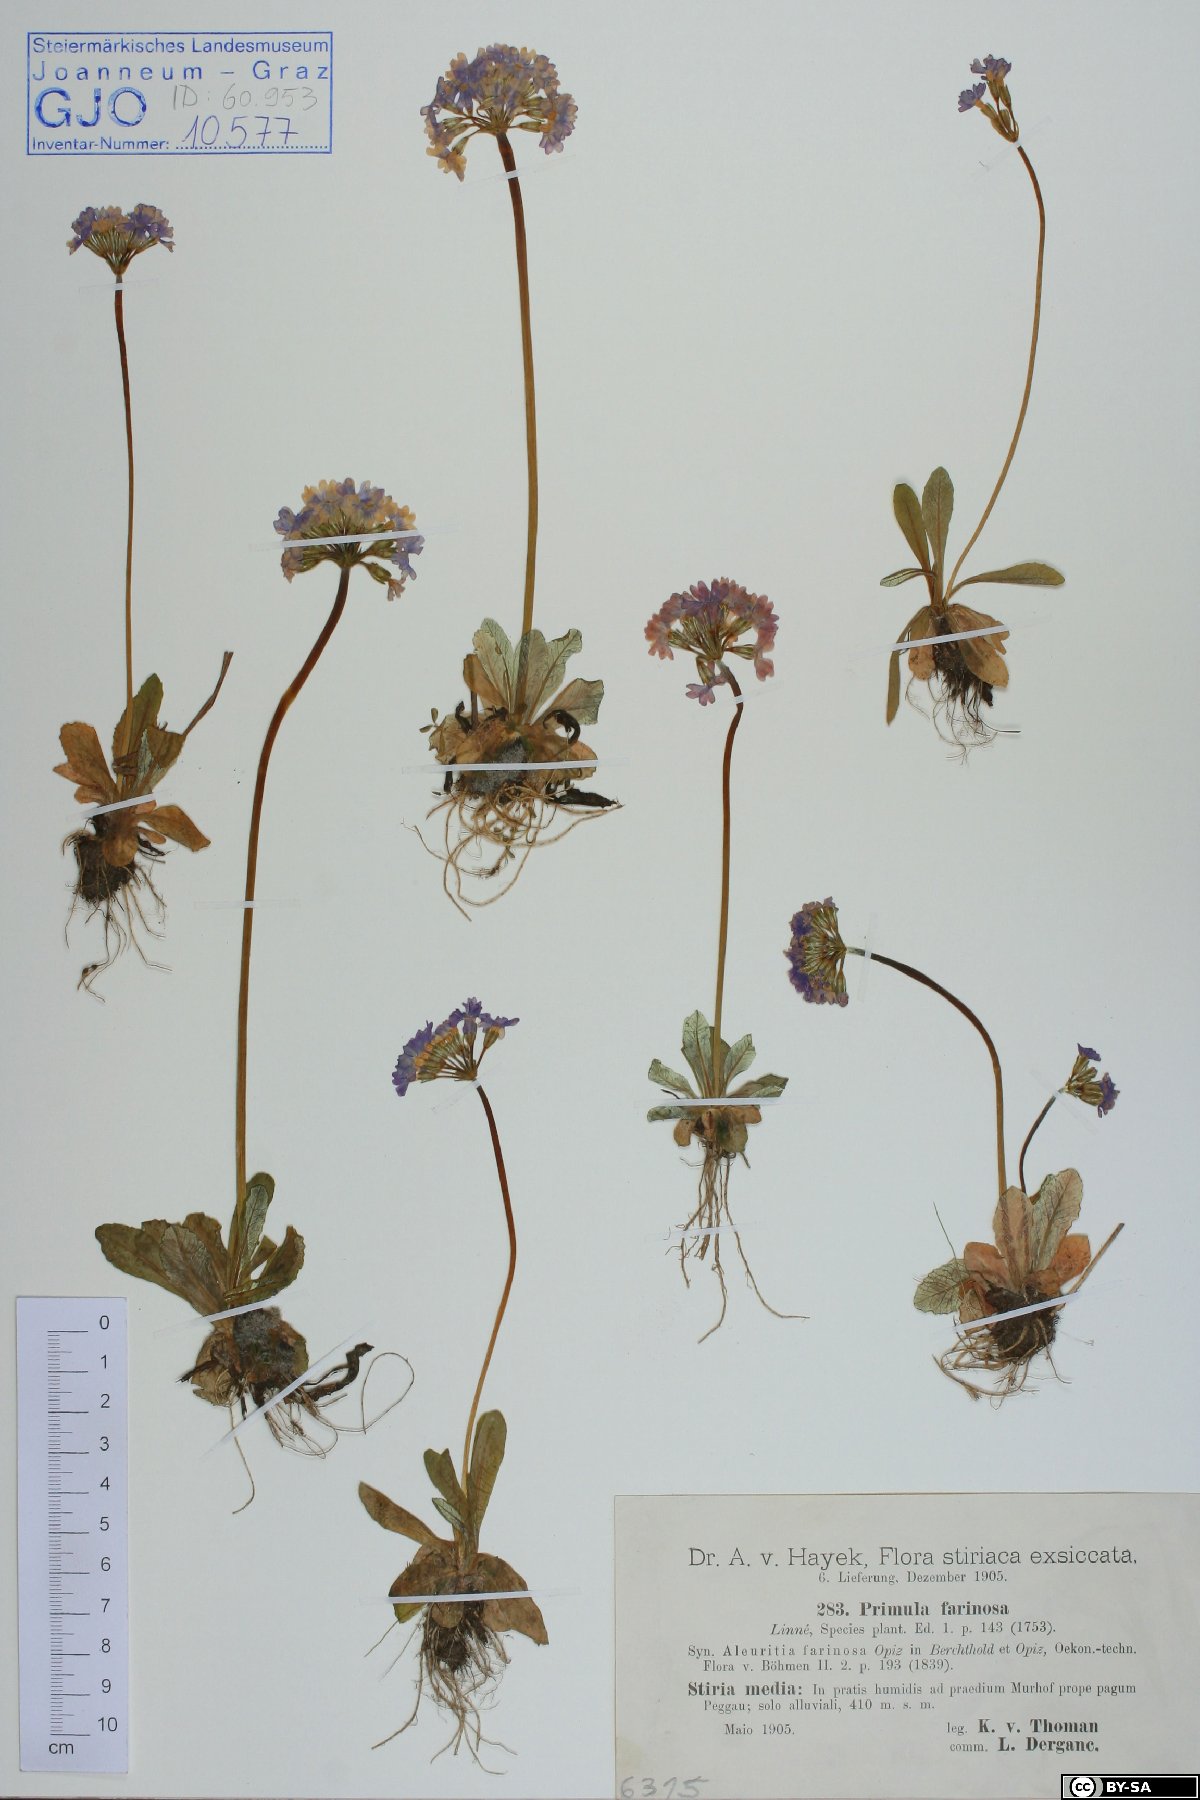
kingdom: Plantae
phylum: Tracheophyta
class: Magnoliopsida
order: Ericales
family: Primulaceae
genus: Primula
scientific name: Primula farinosa
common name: Bird's-eye primrose
